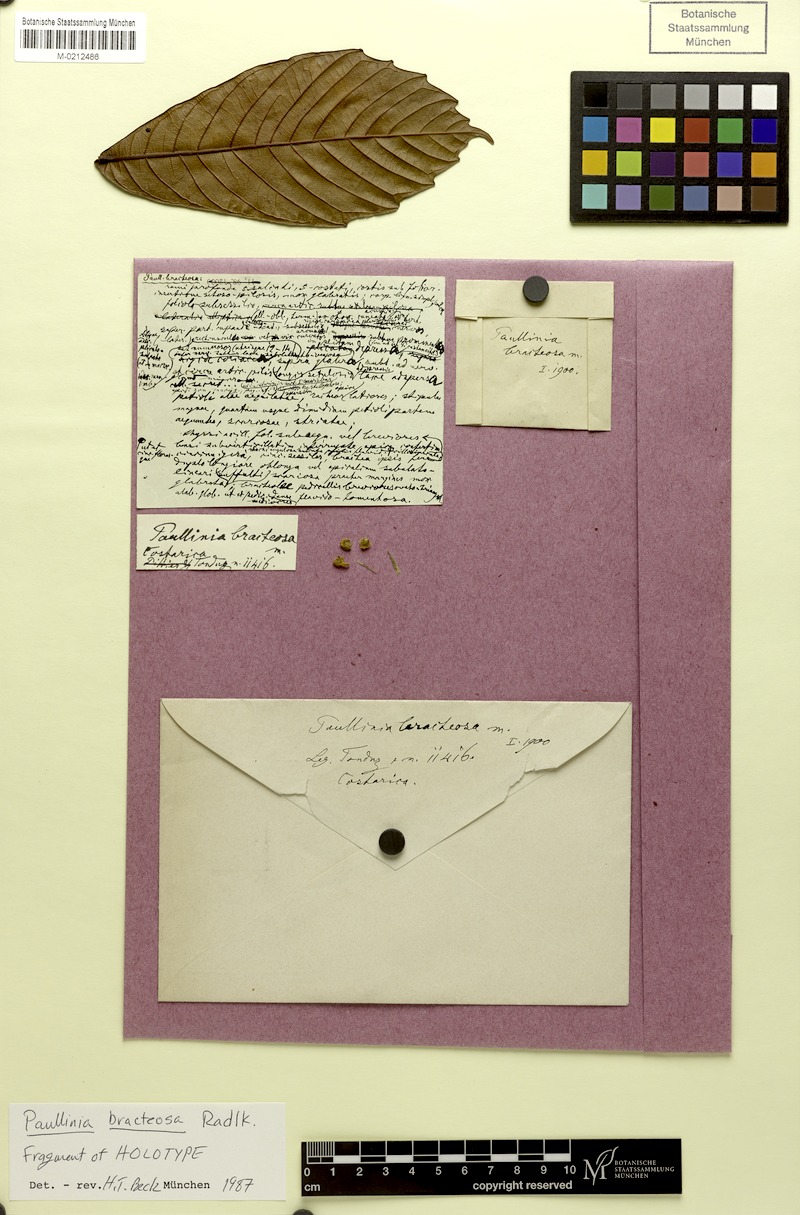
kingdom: Plantae
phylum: Tracheophyta
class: Magnoliopsida
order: Sapindales
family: Sapindaceae
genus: Paullinia
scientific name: Paullinia bracteosa
